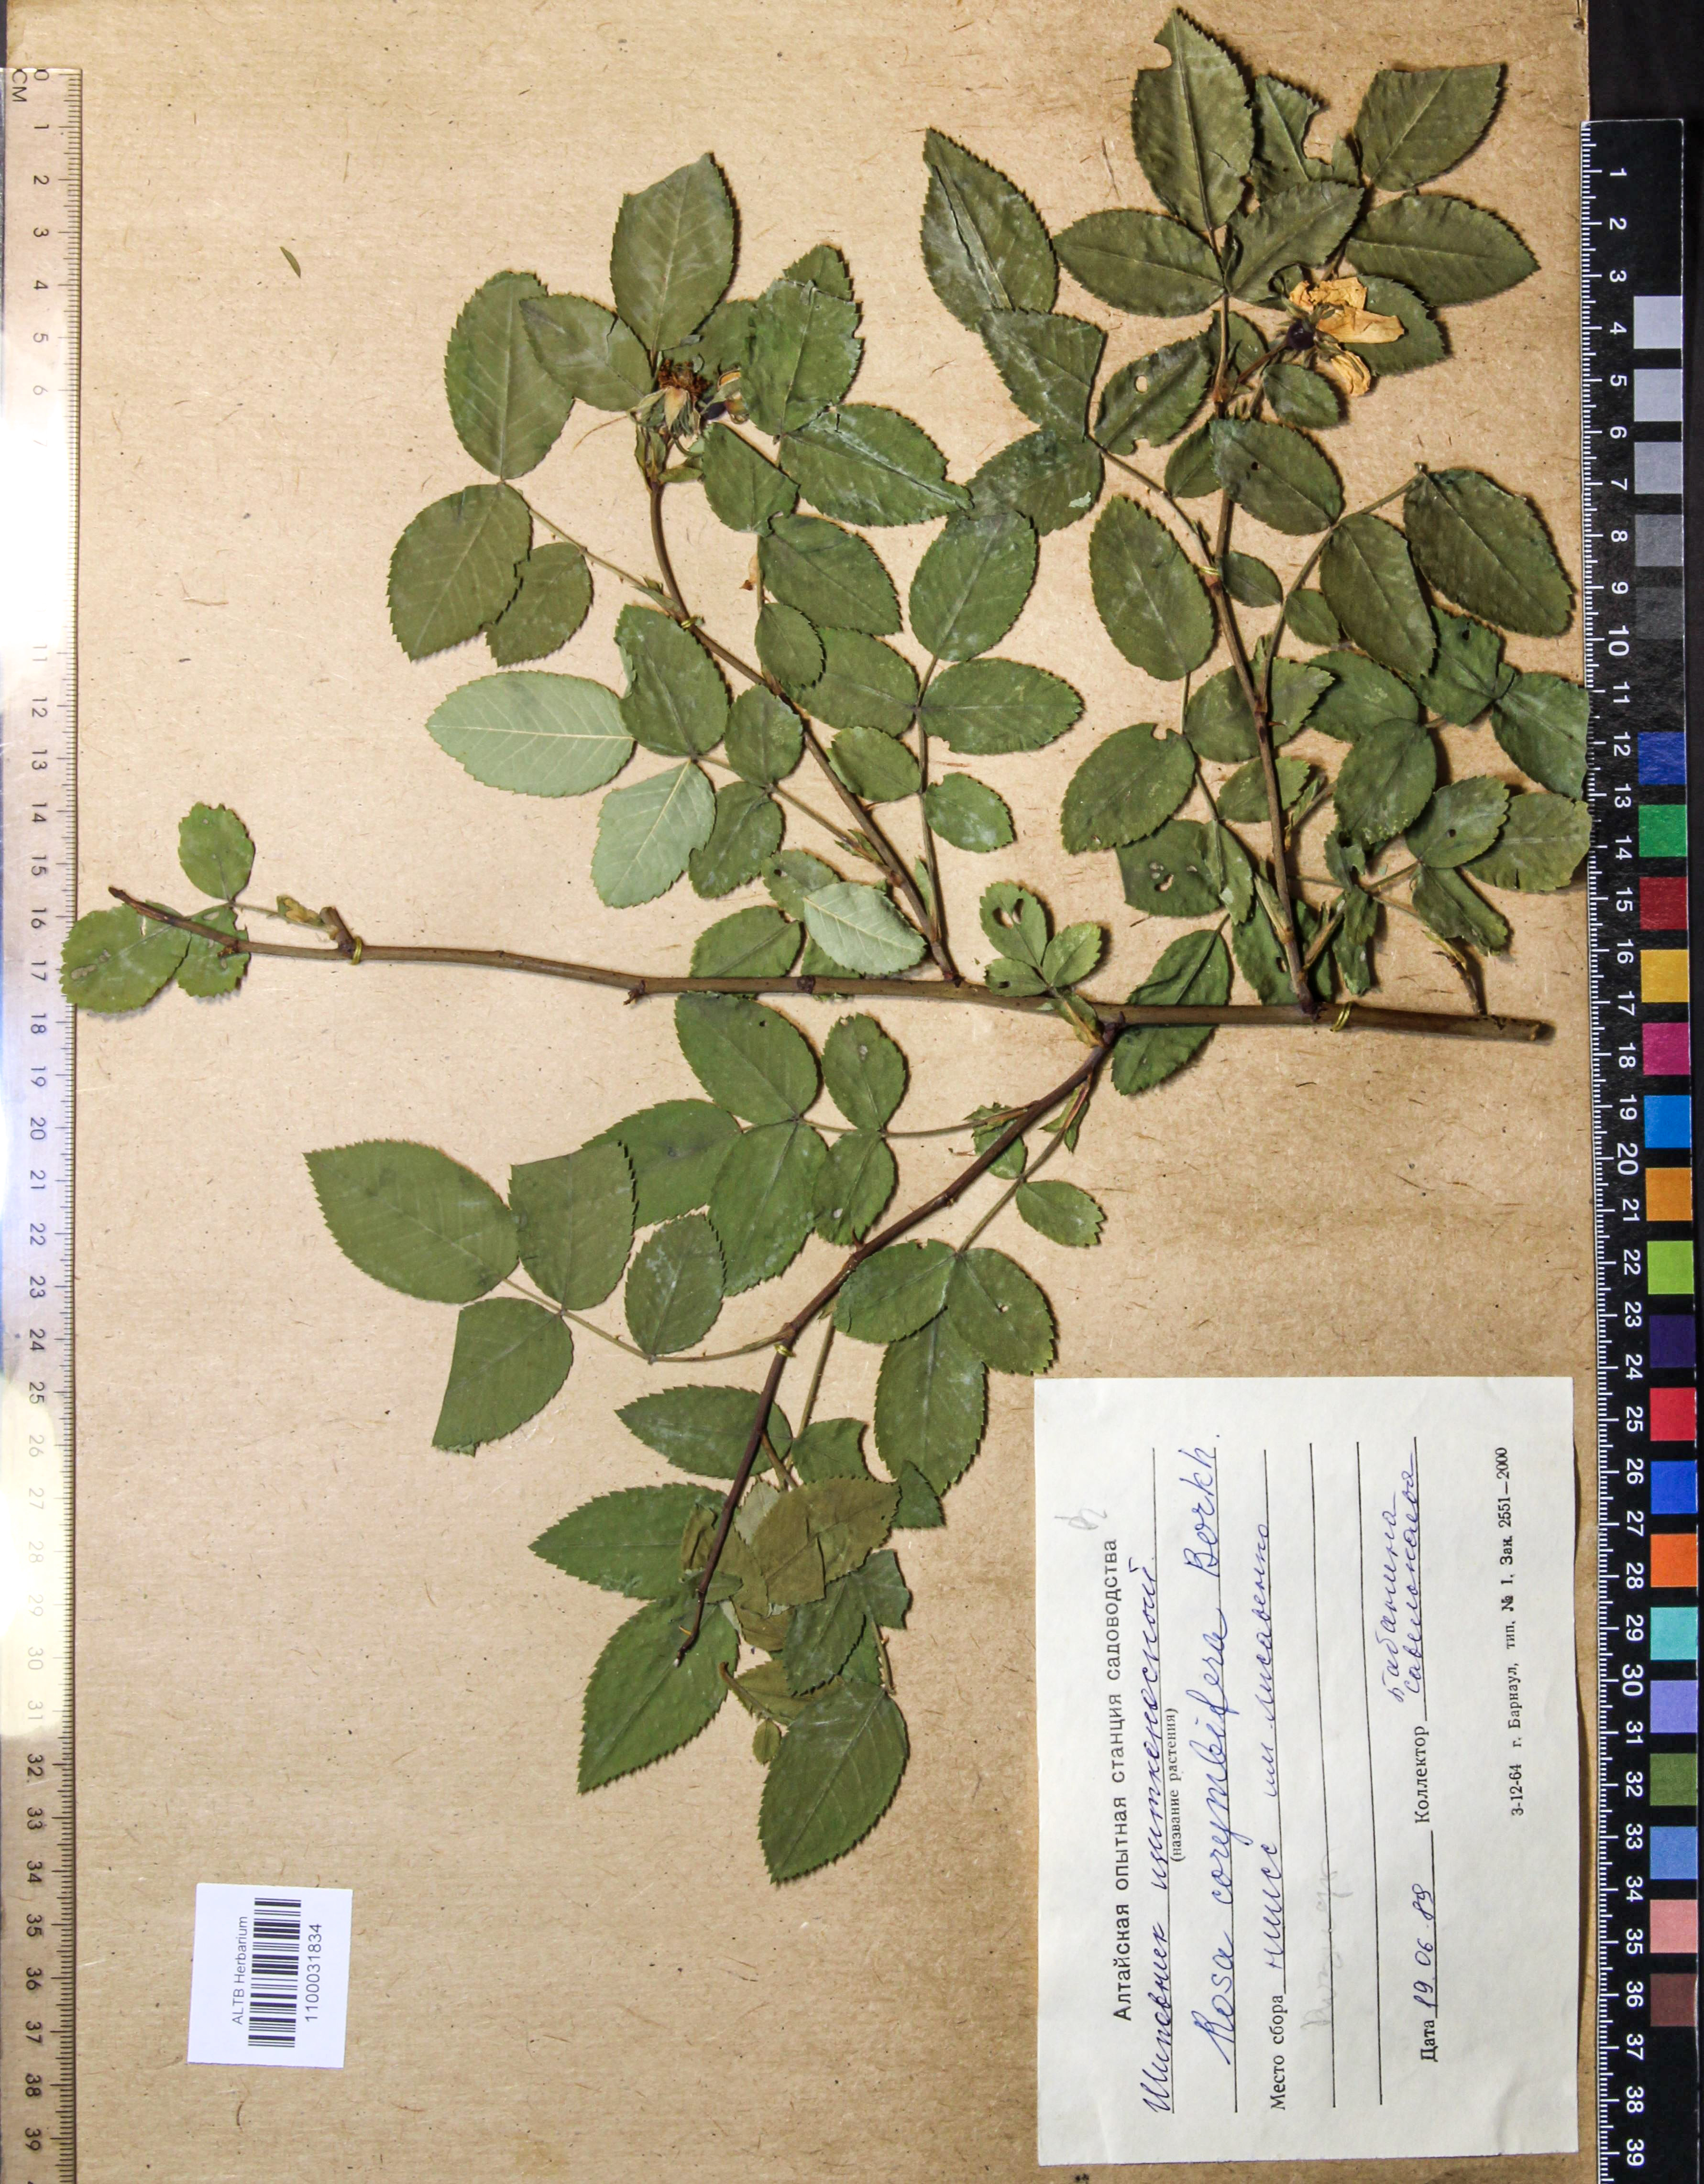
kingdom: Plantae
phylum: Tracheophyta
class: Magnoliopsida
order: Rosales
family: Rosaceae
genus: Rosa
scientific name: Rosa corymbifera
